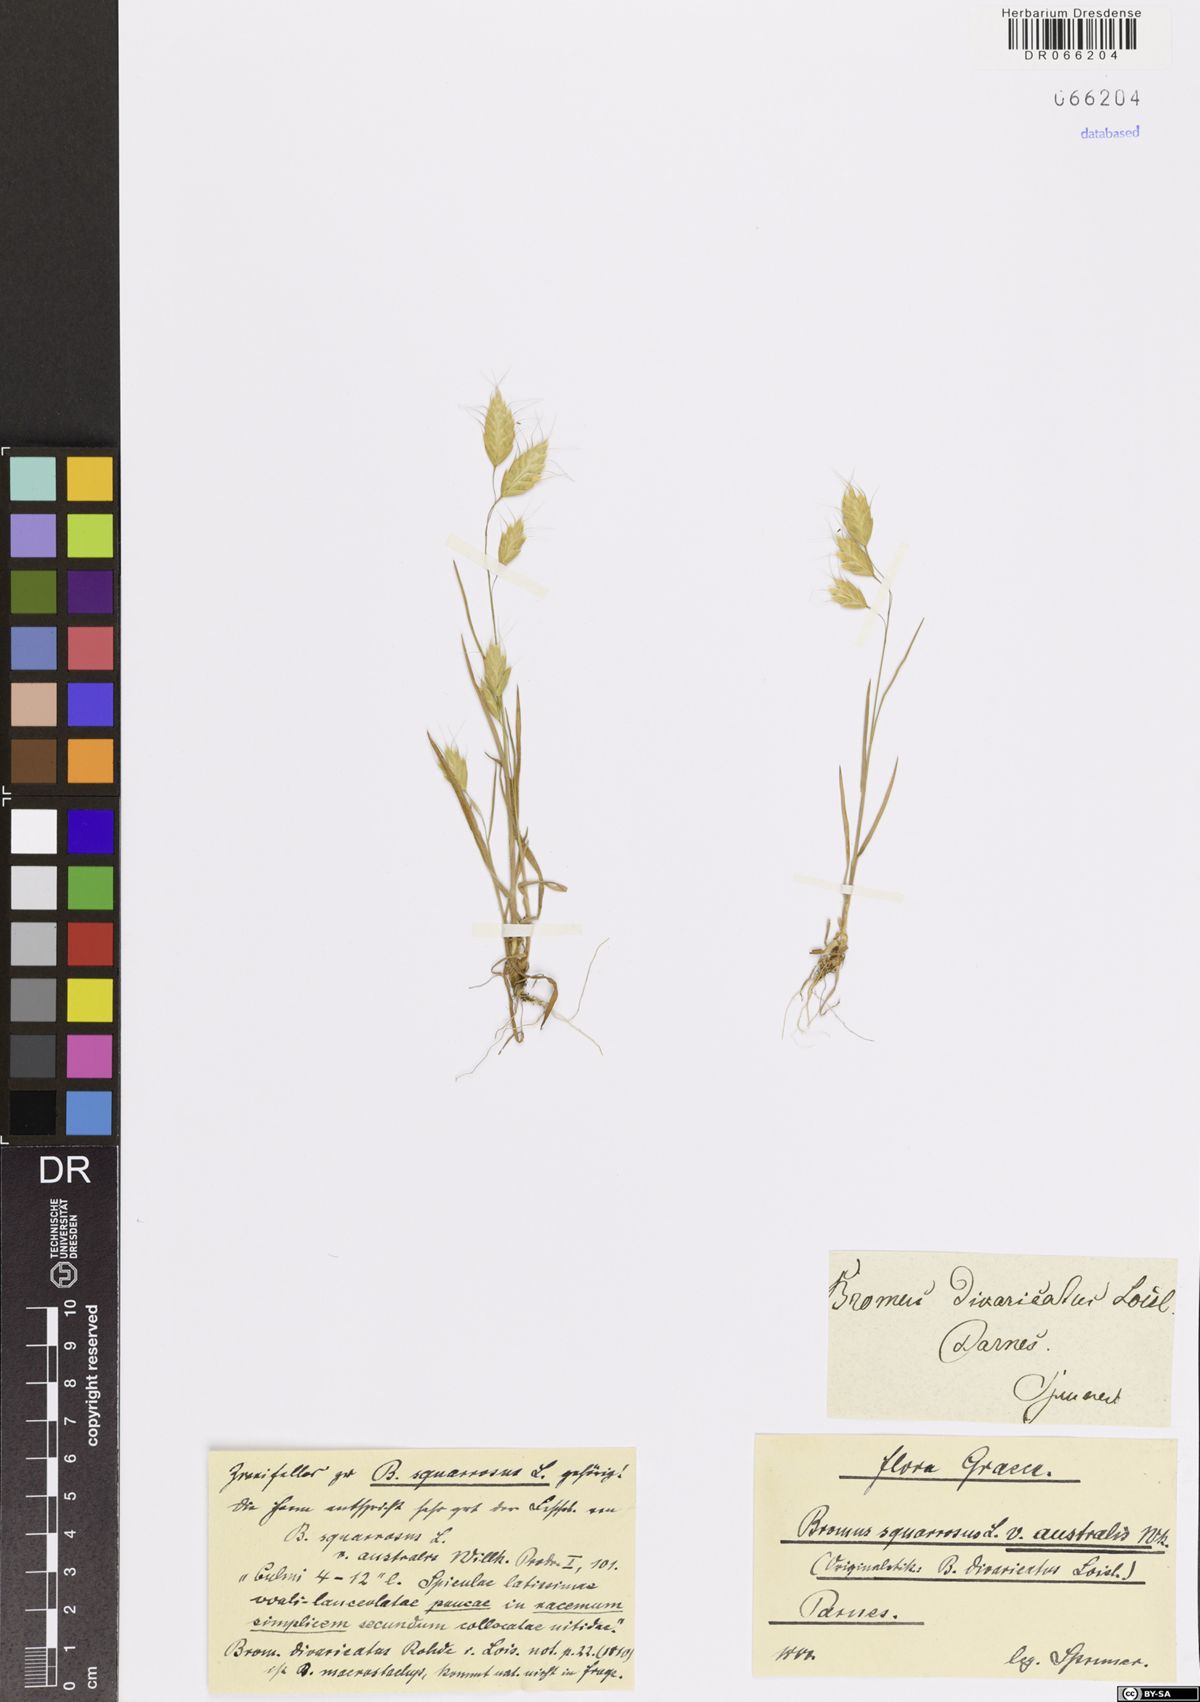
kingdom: Plantae
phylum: Tracheophyta
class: Liliopsida
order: Poales
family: Poaceae
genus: Bromus
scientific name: Bromus squarrosus
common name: Corn brome
